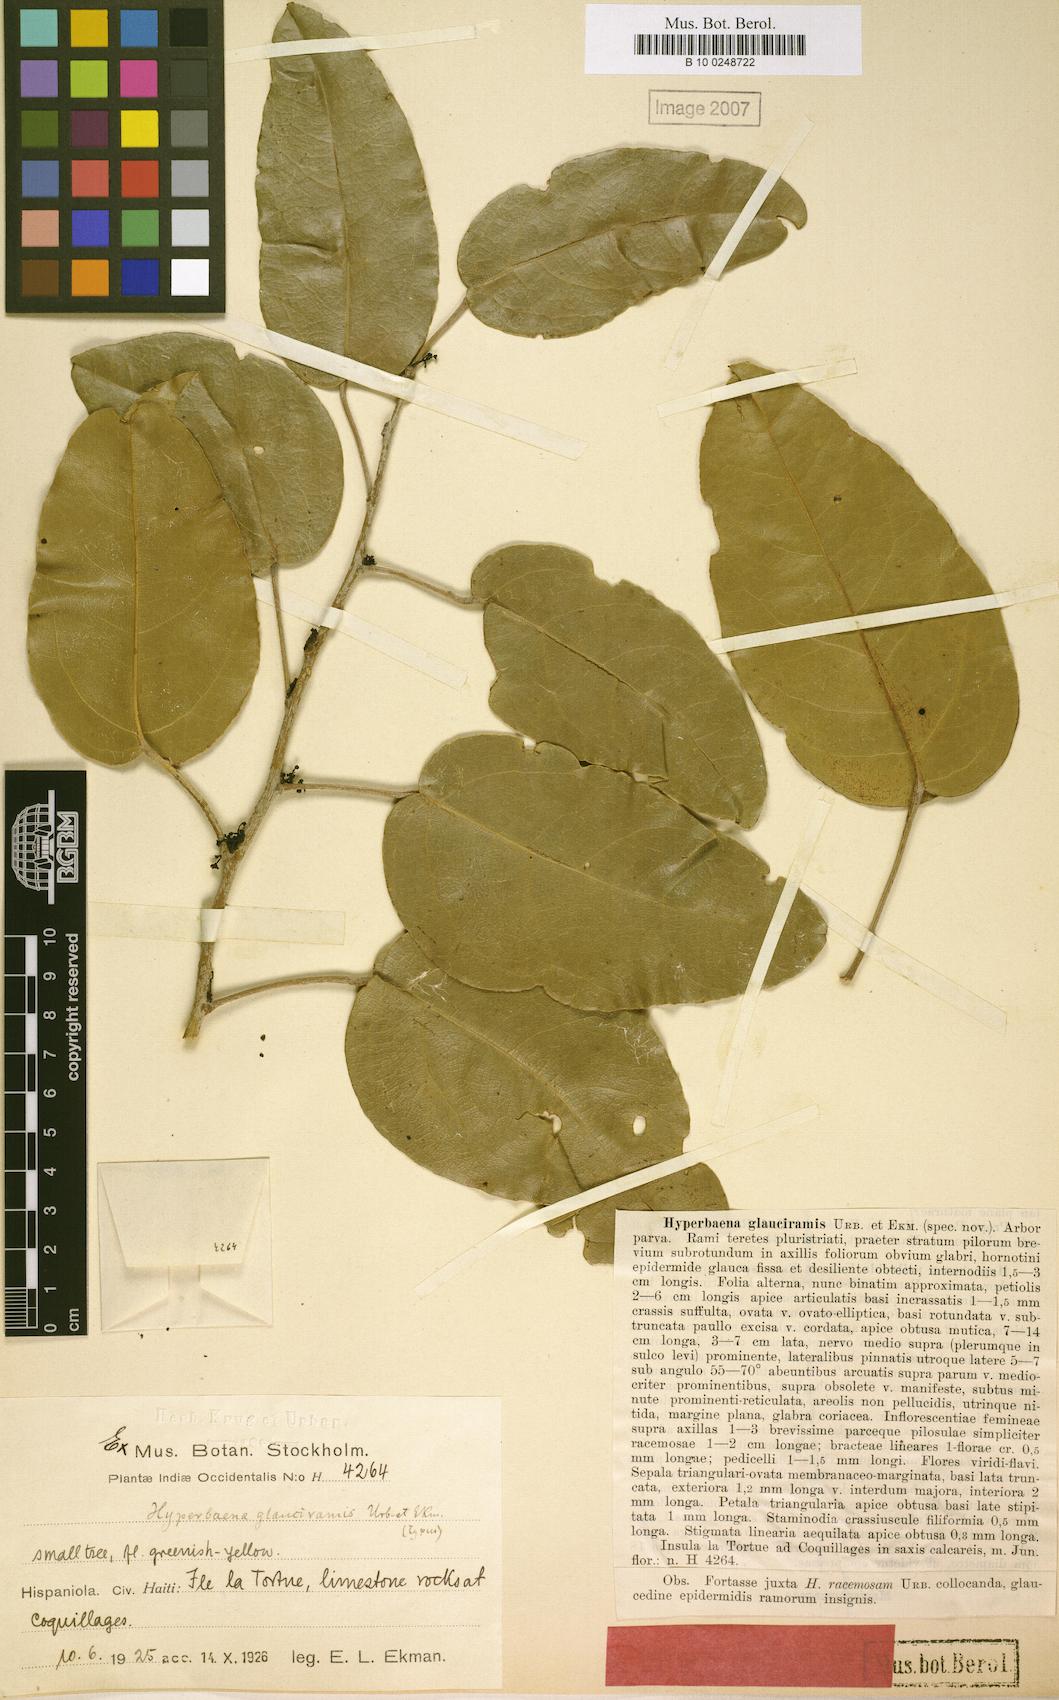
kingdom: Plantae
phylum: Tracheophyta
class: Magnoliopsida
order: Ranunculales
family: Menispermaceae
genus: Hyperbaena
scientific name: Hyperbaena laurifolia
